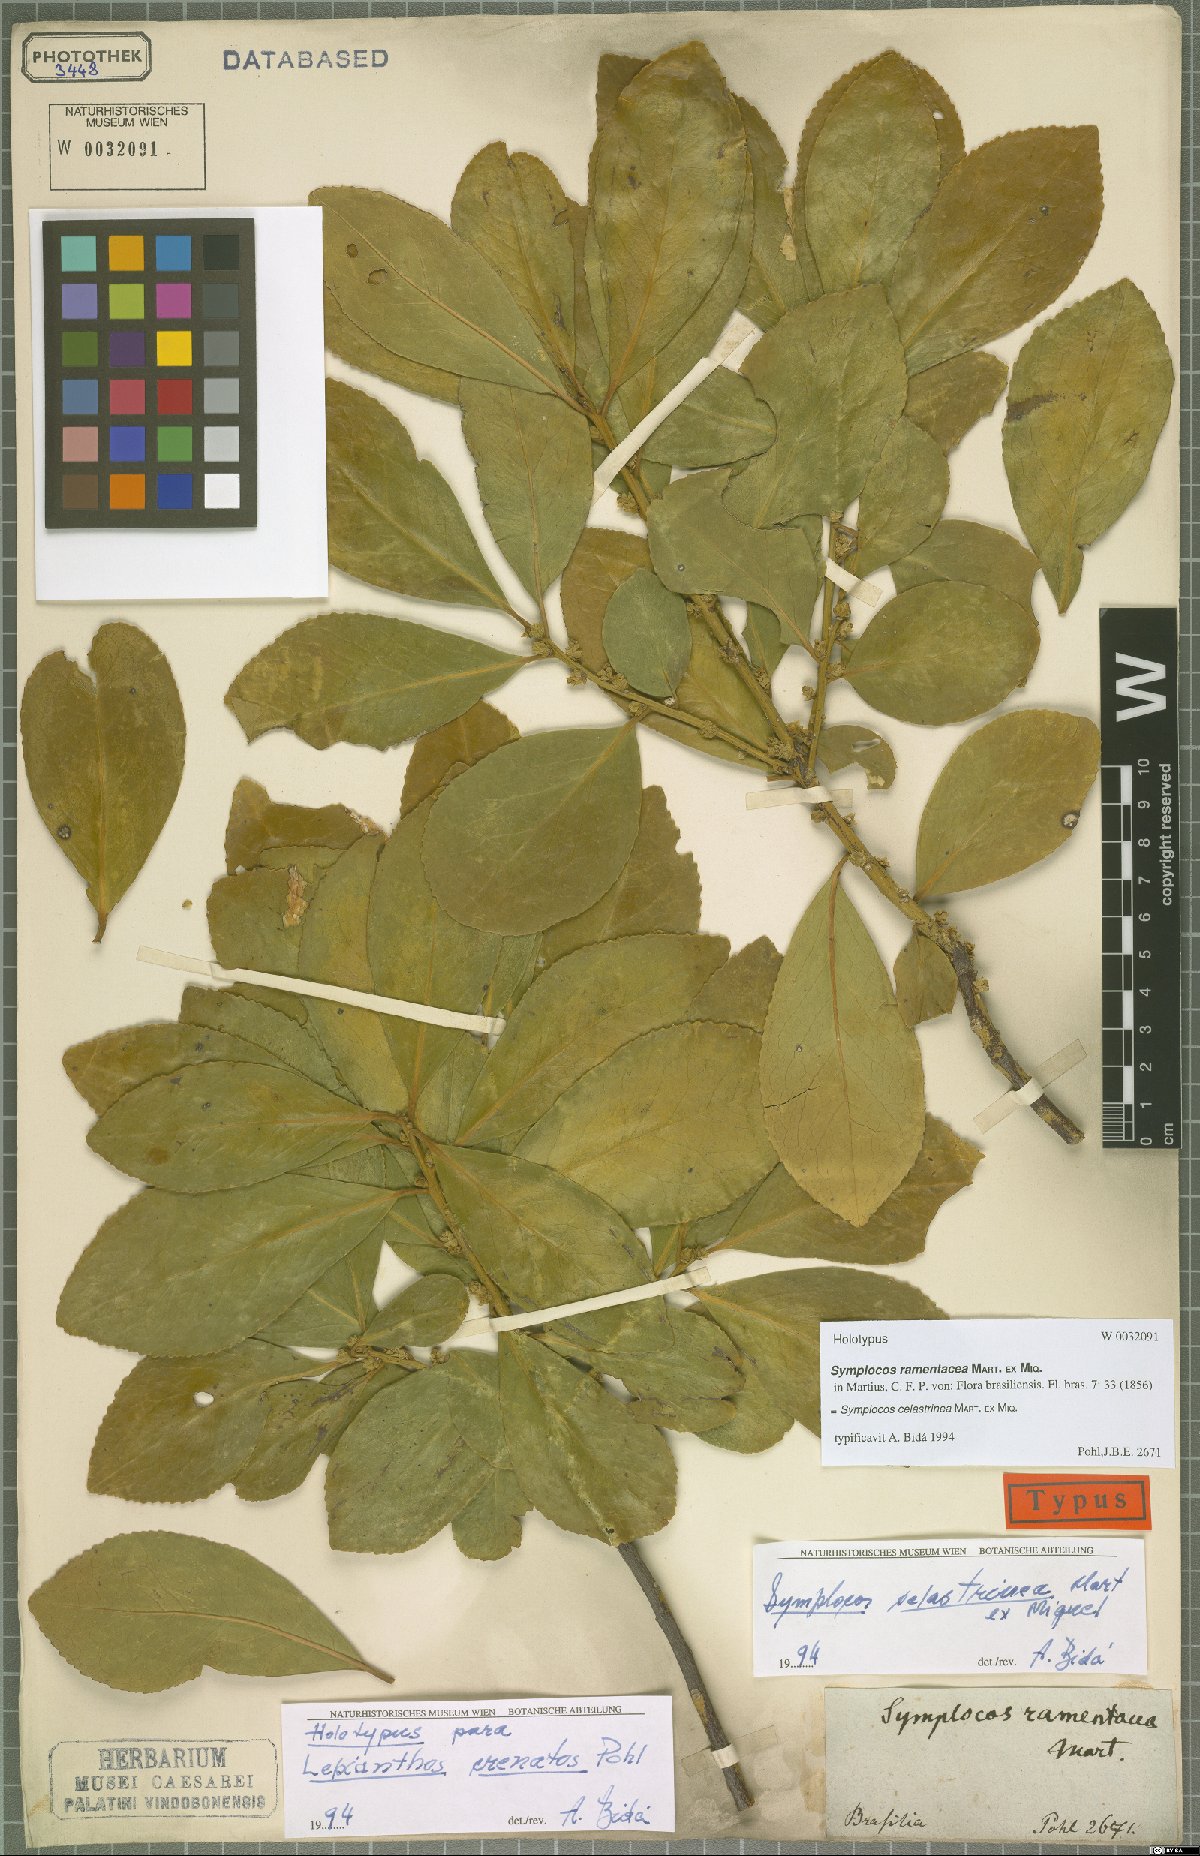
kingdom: Plantae
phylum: Tracheophyta
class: Magnoliopsida
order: Ericales
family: Symplocaceae
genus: Symplocos
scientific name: Symplocos celastrinea
